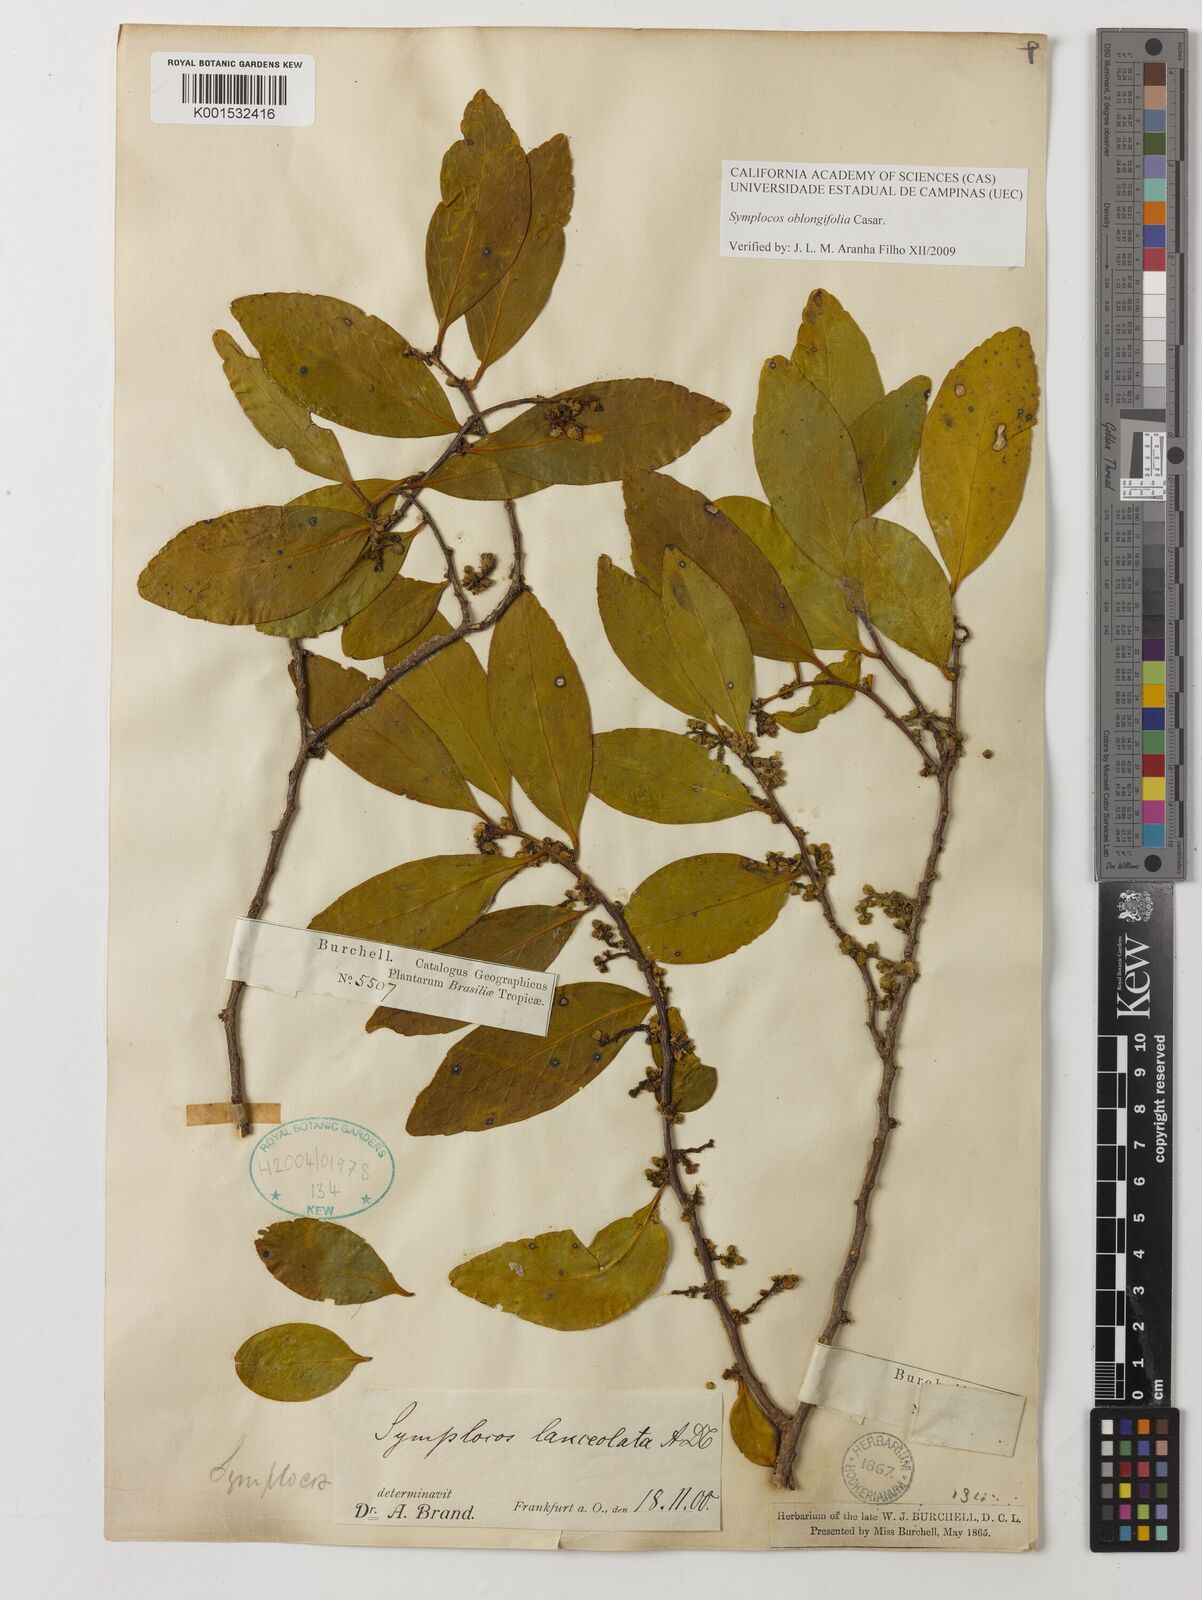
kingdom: Plantae
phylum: Tracheophyta
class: Magnoliopsida
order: Ericales
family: Symplocaceae
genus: Symplocos
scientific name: Symplocos oblongifolia
